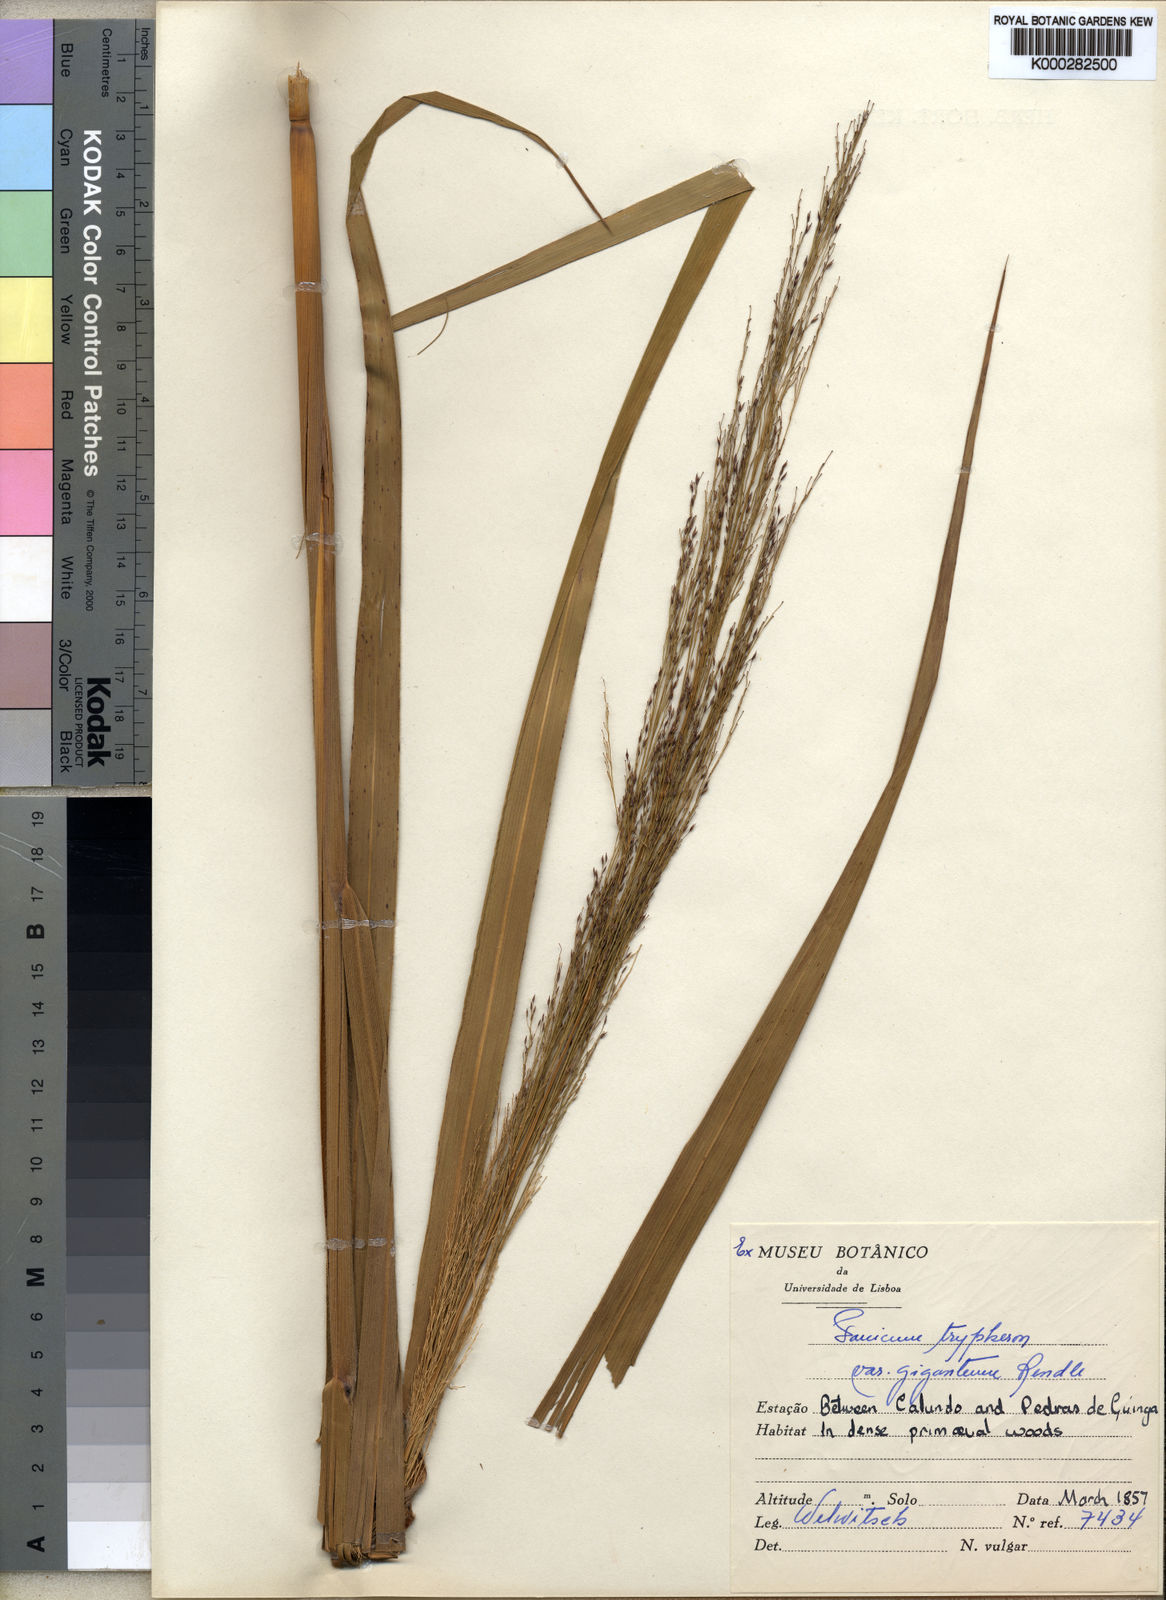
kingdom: Plantae
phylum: Tracheophyta
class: Liliopsida
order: Poales
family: Poaceae
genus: Panicum
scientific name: Panicum phragmitoides
